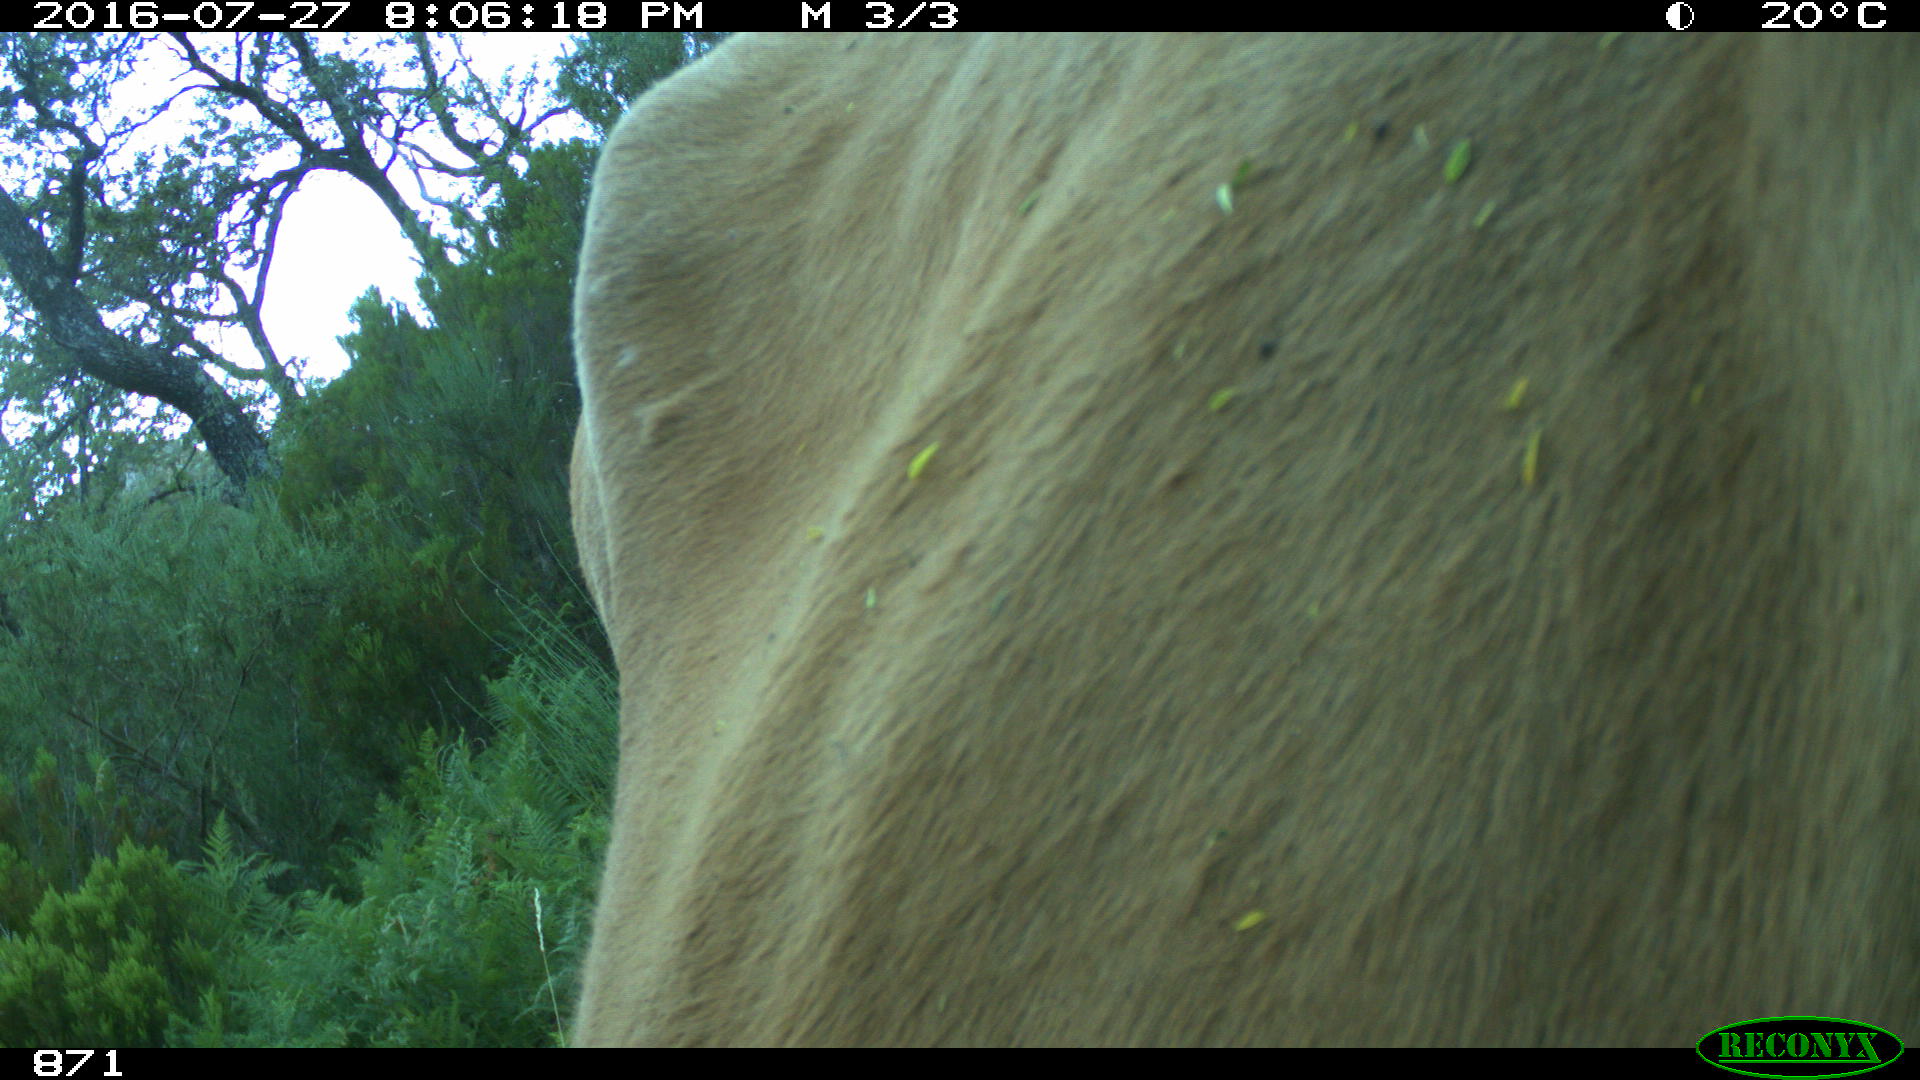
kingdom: Animalia
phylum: Chordata
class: Mammalia
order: Artiodactyla
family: Bovidae
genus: Bos
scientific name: Bos taurus
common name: Domesticated cattle
